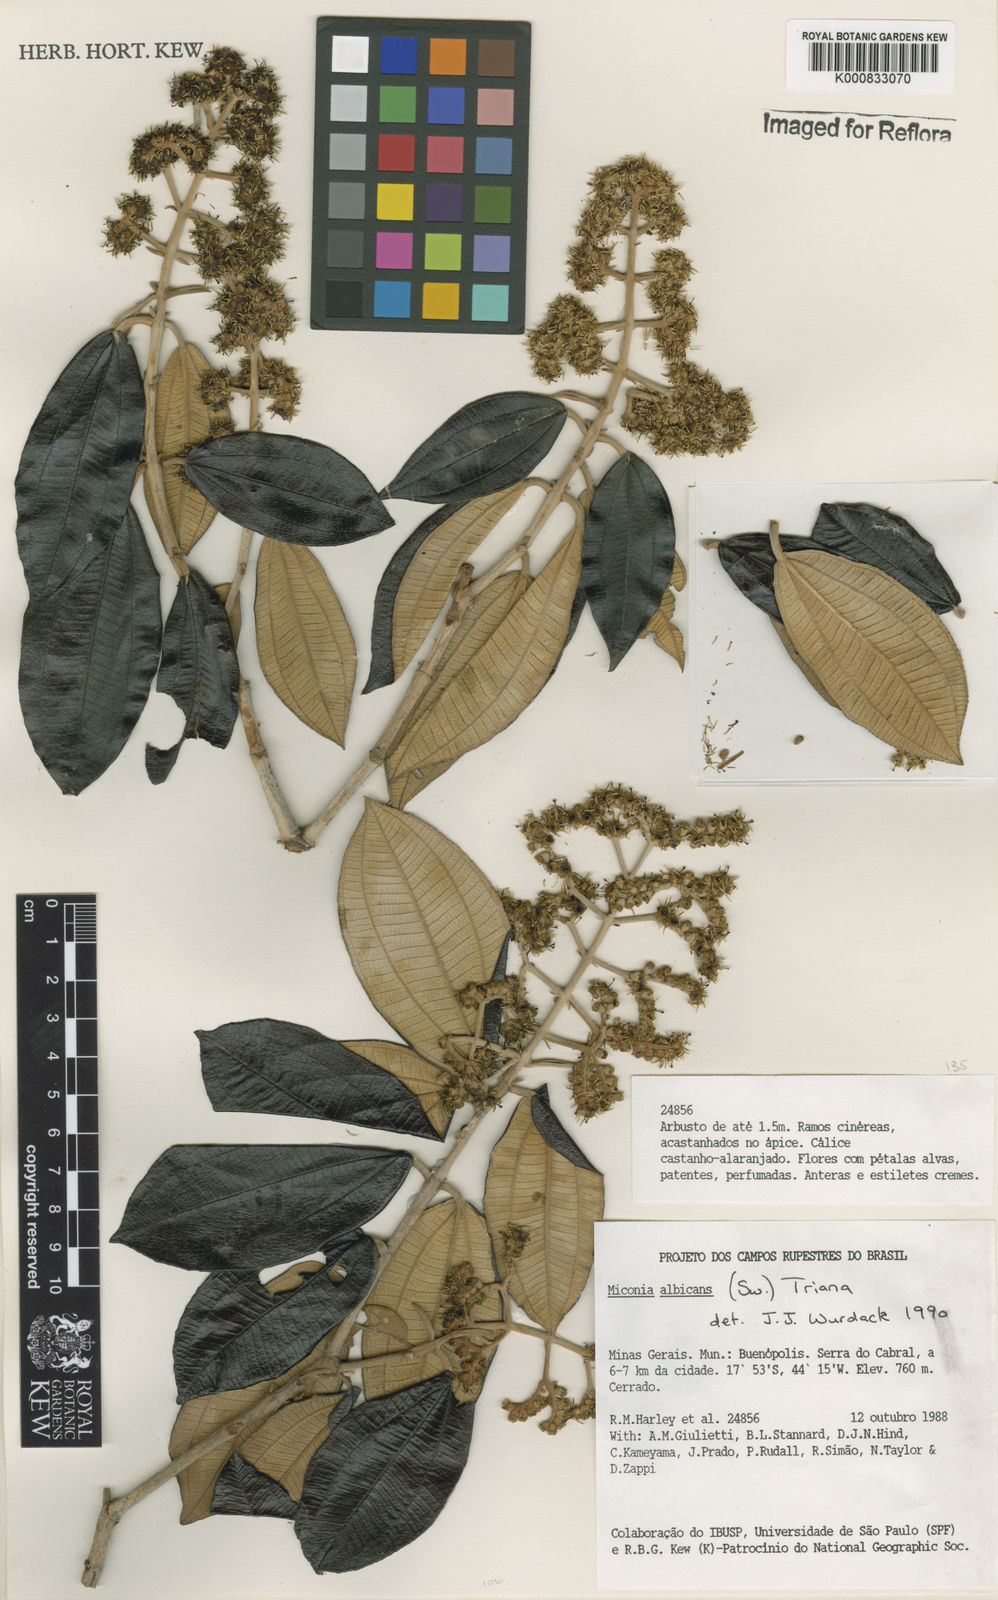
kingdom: Plantae
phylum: Tracheophyta
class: Magnoliopsida
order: Myrtales
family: Melastomataceae
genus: Miconia
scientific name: Miconia albicans
